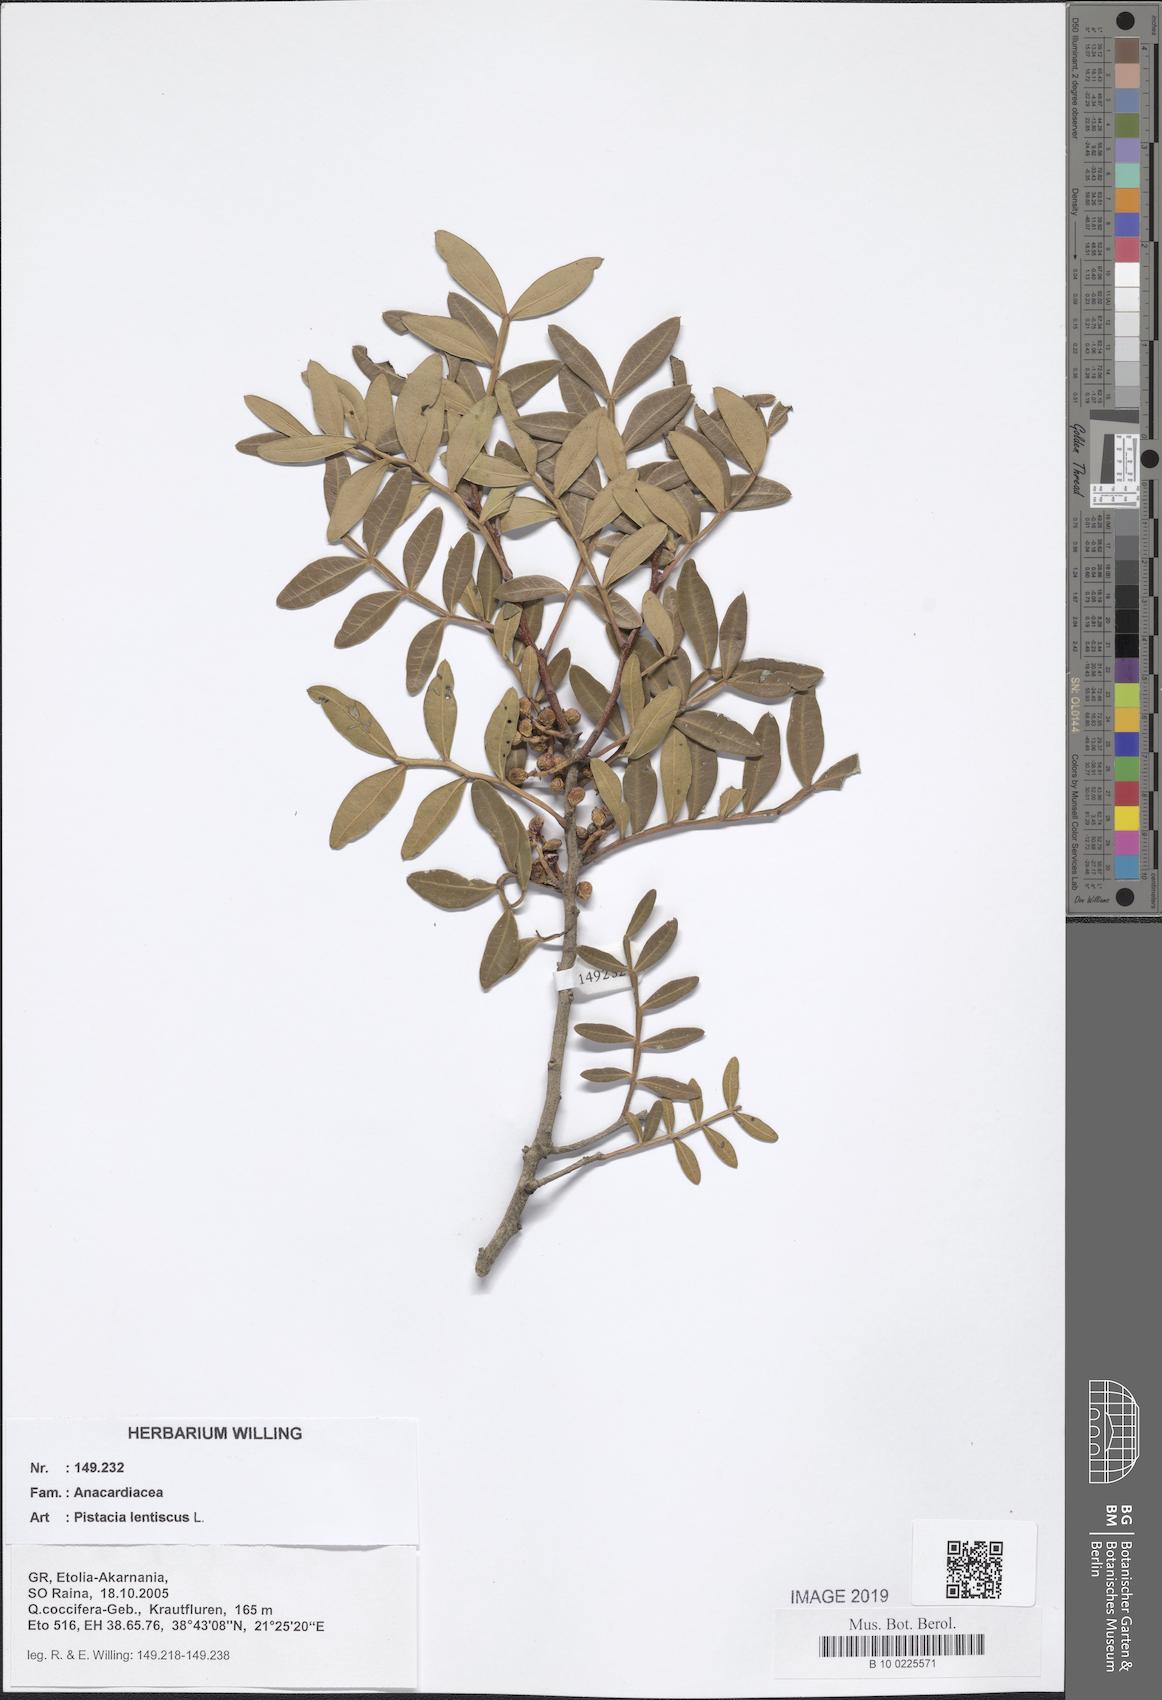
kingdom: Plantae
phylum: Tracheophyta
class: Magnoliopsida
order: Sapindales
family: Anacardiaceae
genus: Pistacia
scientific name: Pistacia lentiscus
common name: Lentisk
